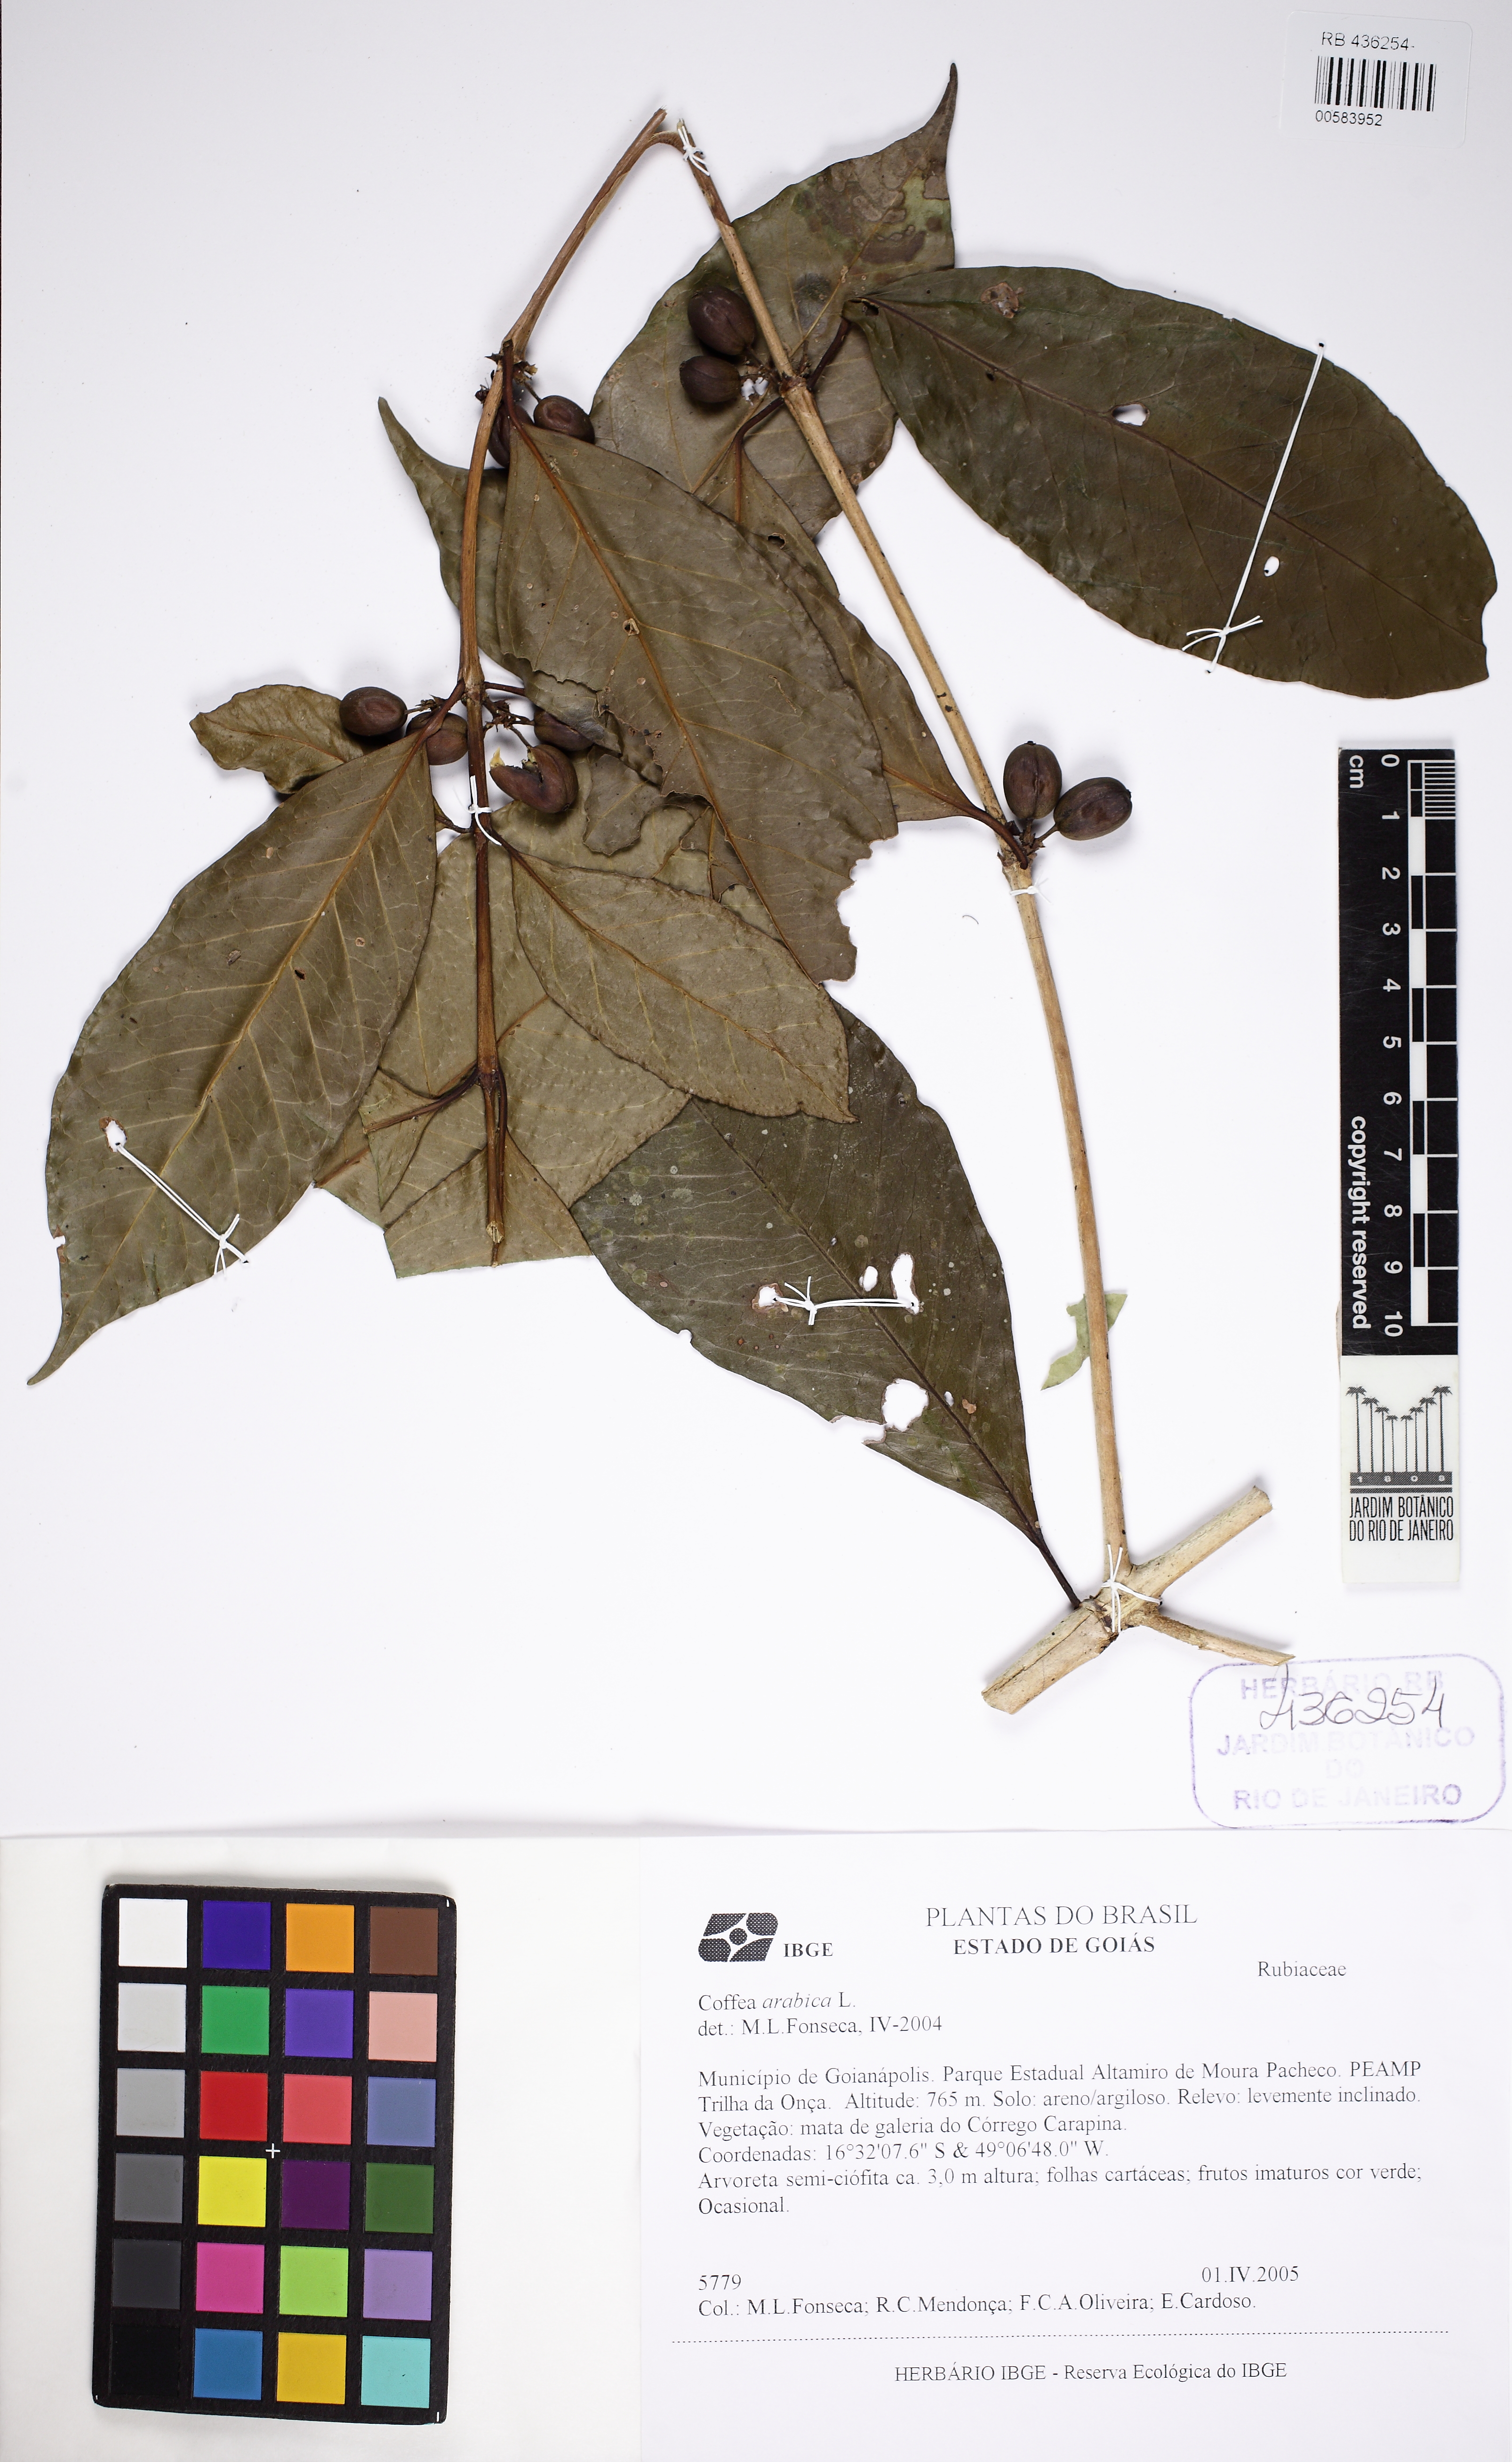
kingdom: Plantae
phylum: Tracheophyta
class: Magnoliopsida
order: Gentianales
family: Rubiaceae
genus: Coffea
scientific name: Coffea arabica
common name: Coffee
